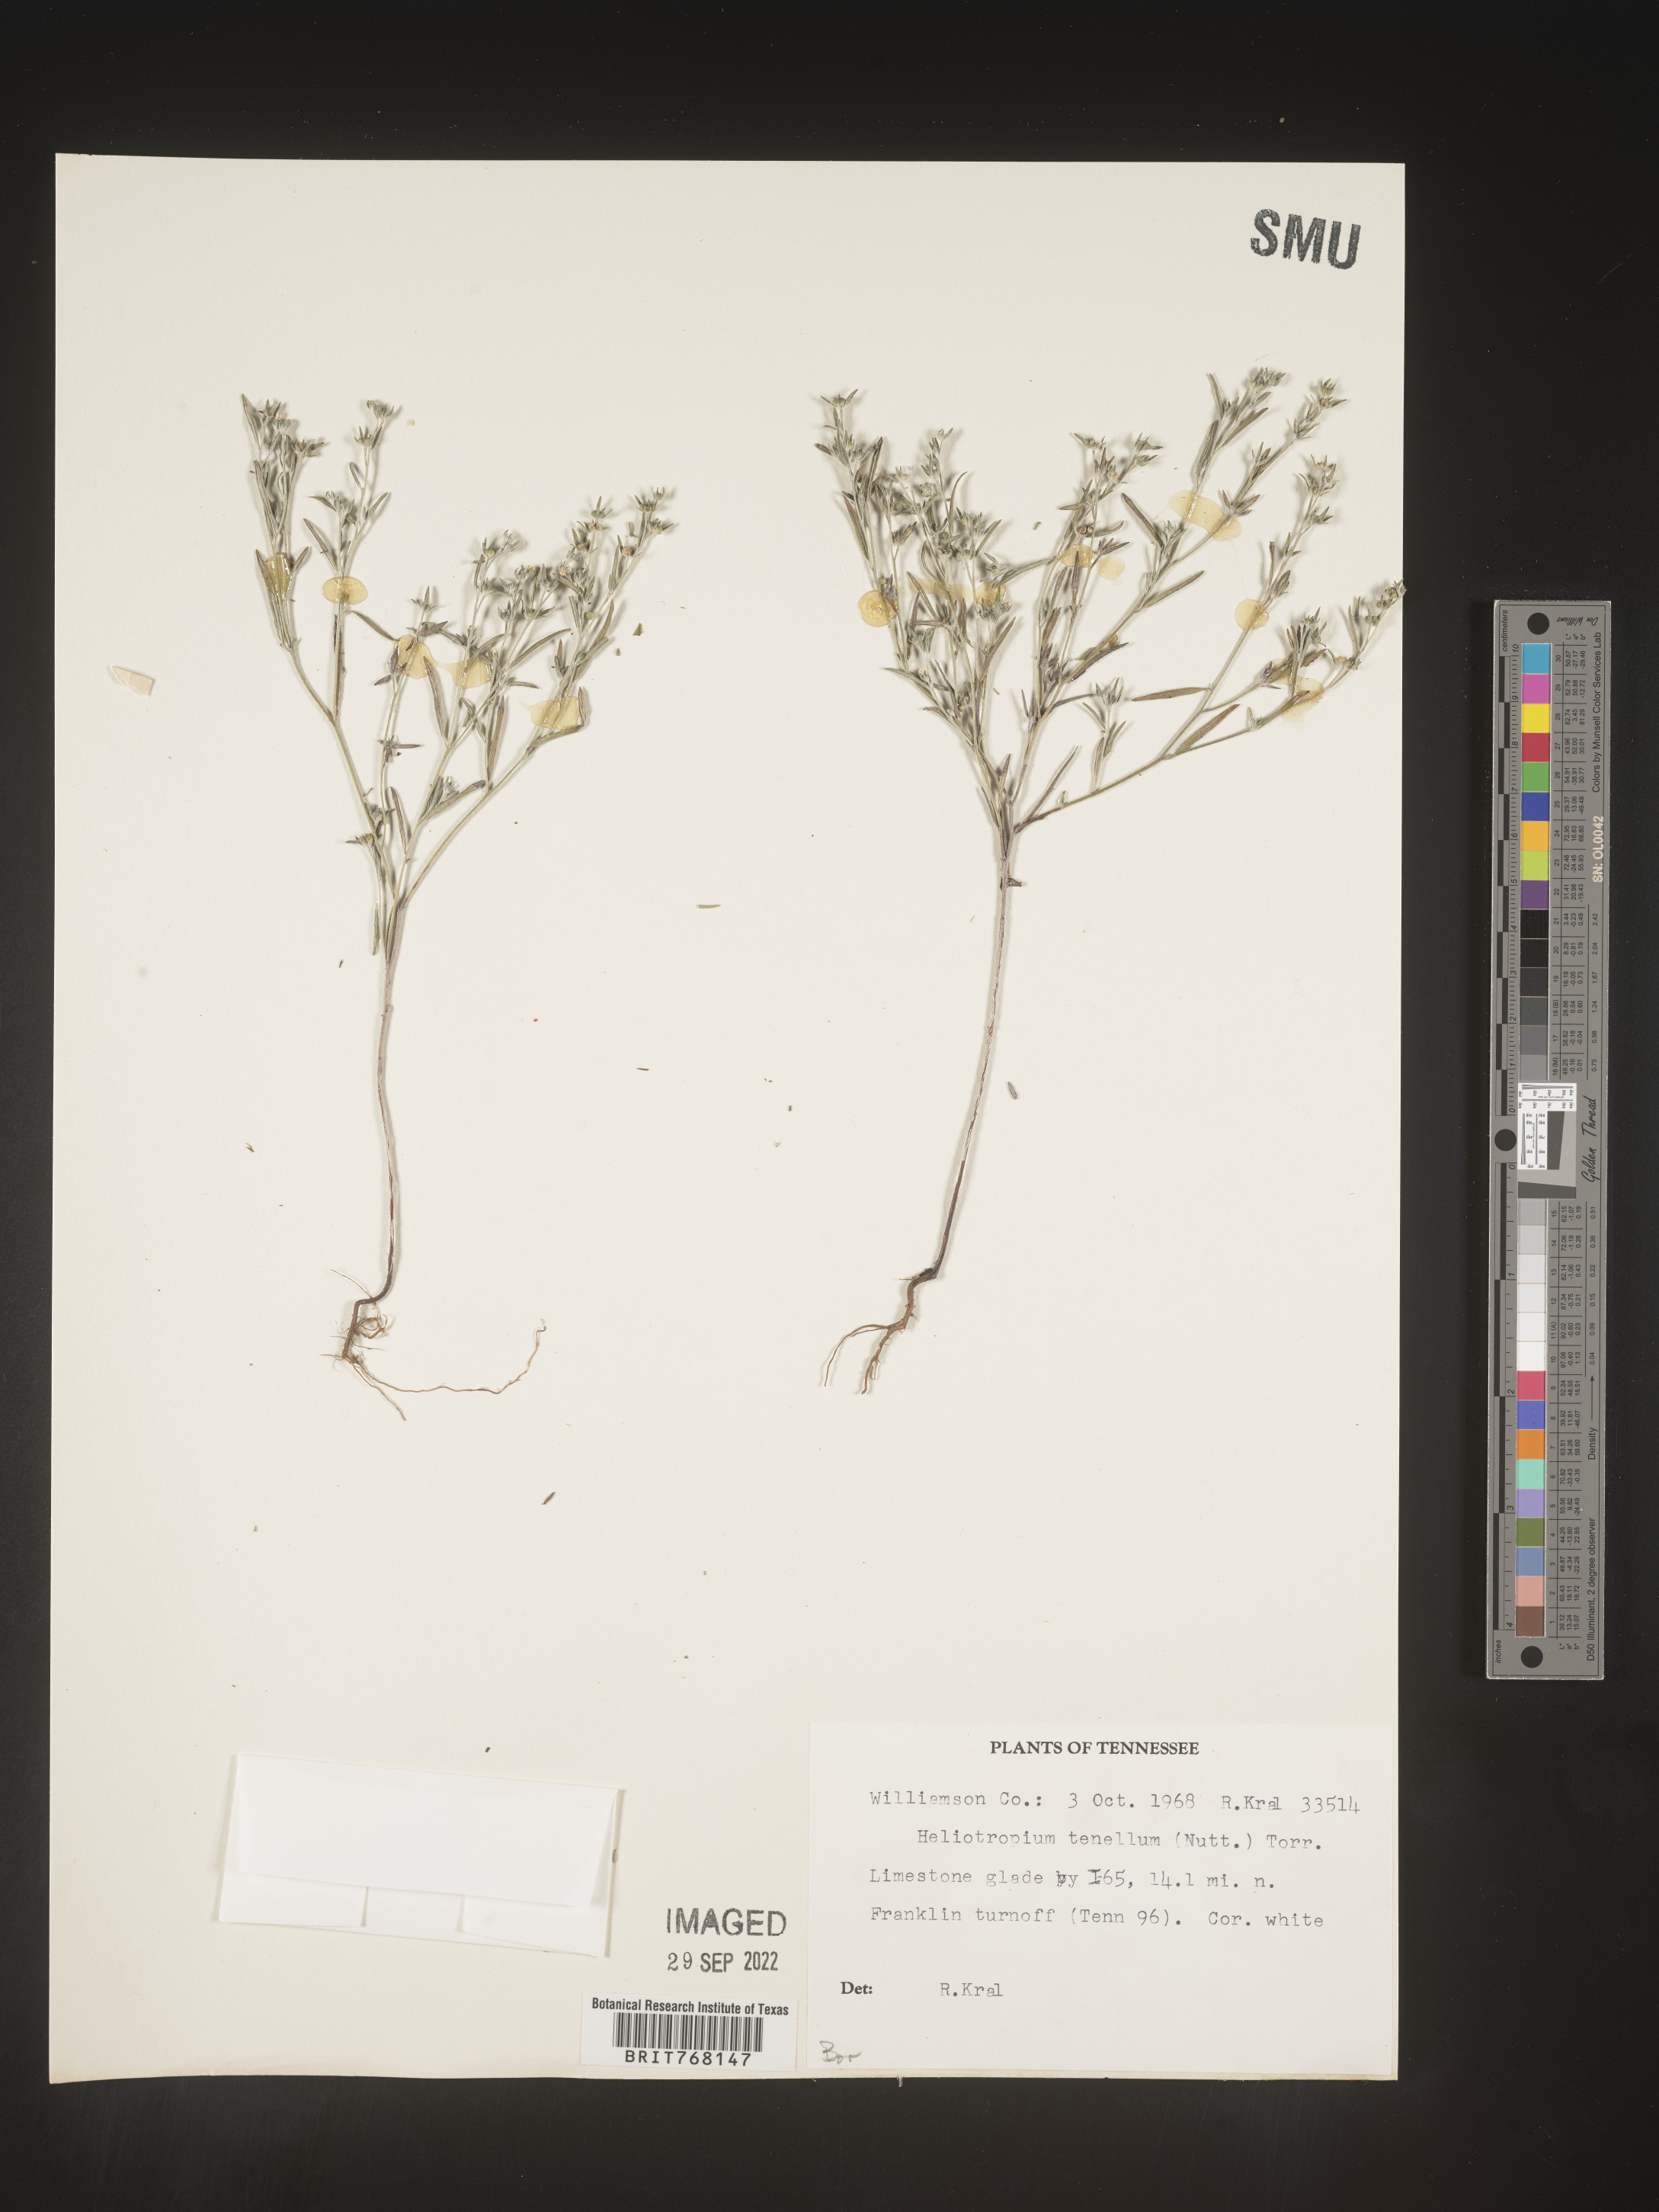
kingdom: Plantae
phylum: Tracheophyta
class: Magnoliopsida
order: Boraginales
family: Heliotropiaceae
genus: Euploca
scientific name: Euploca tenella
